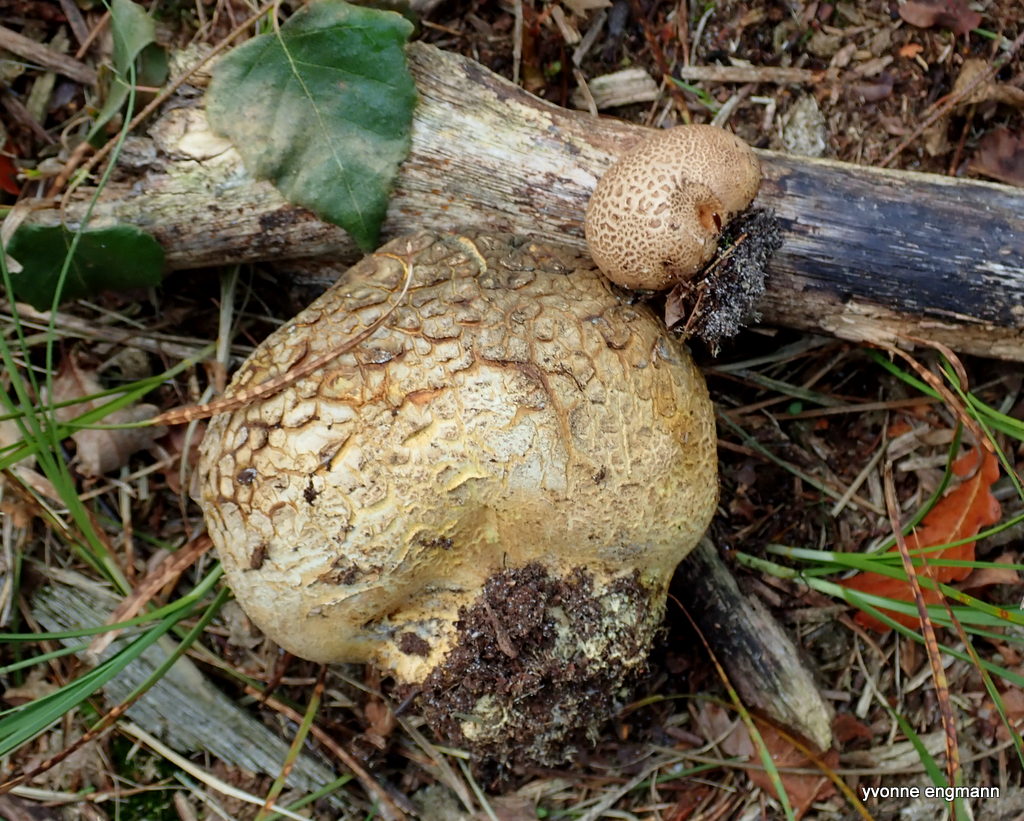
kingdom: Fungi
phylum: Basidiomycota
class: Agaricomycetes
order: Boletales
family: Sclerodermataceae
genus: Scleroderma
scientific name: Scleroderma citrinum
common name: almindelig bruskbold
